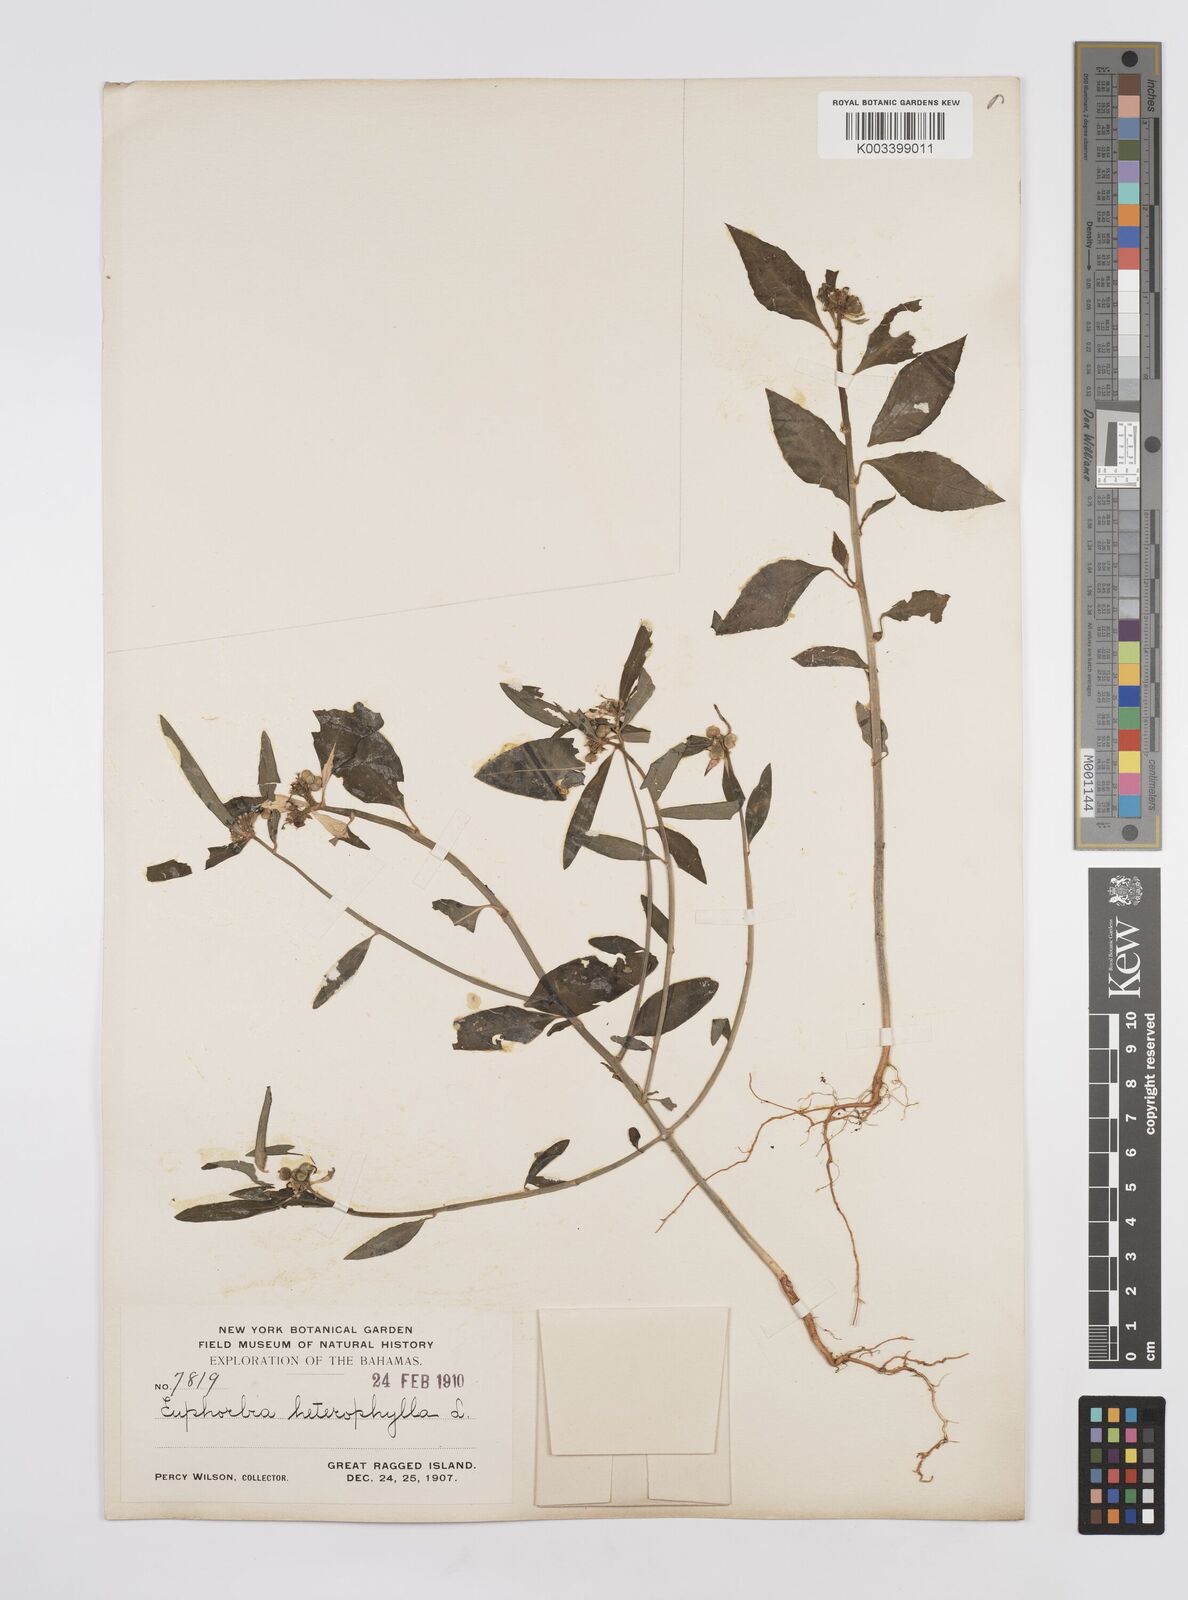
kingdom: Plantae
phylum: Tracheophyta
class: Magnoliopsida
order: Malpighiales
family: Euphorbiaceae
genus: Euphorbia
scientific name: Euphorbia heterophylla
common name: Mexican fireplant
